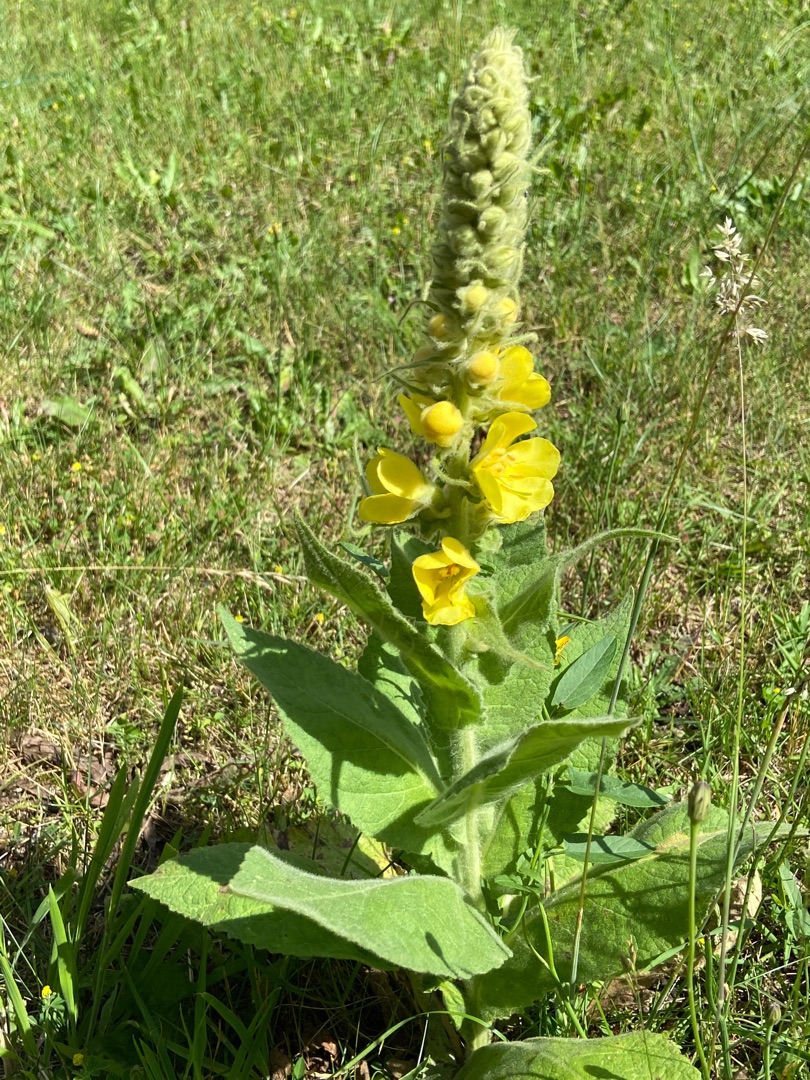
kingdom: Plantae
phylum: Tracheophyta
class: Magnoliopsida
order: Lamiales
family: Scrophulariaceae
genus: Verbascum
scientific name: Verbascum densiflorum
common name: Uldbladet kongelys
